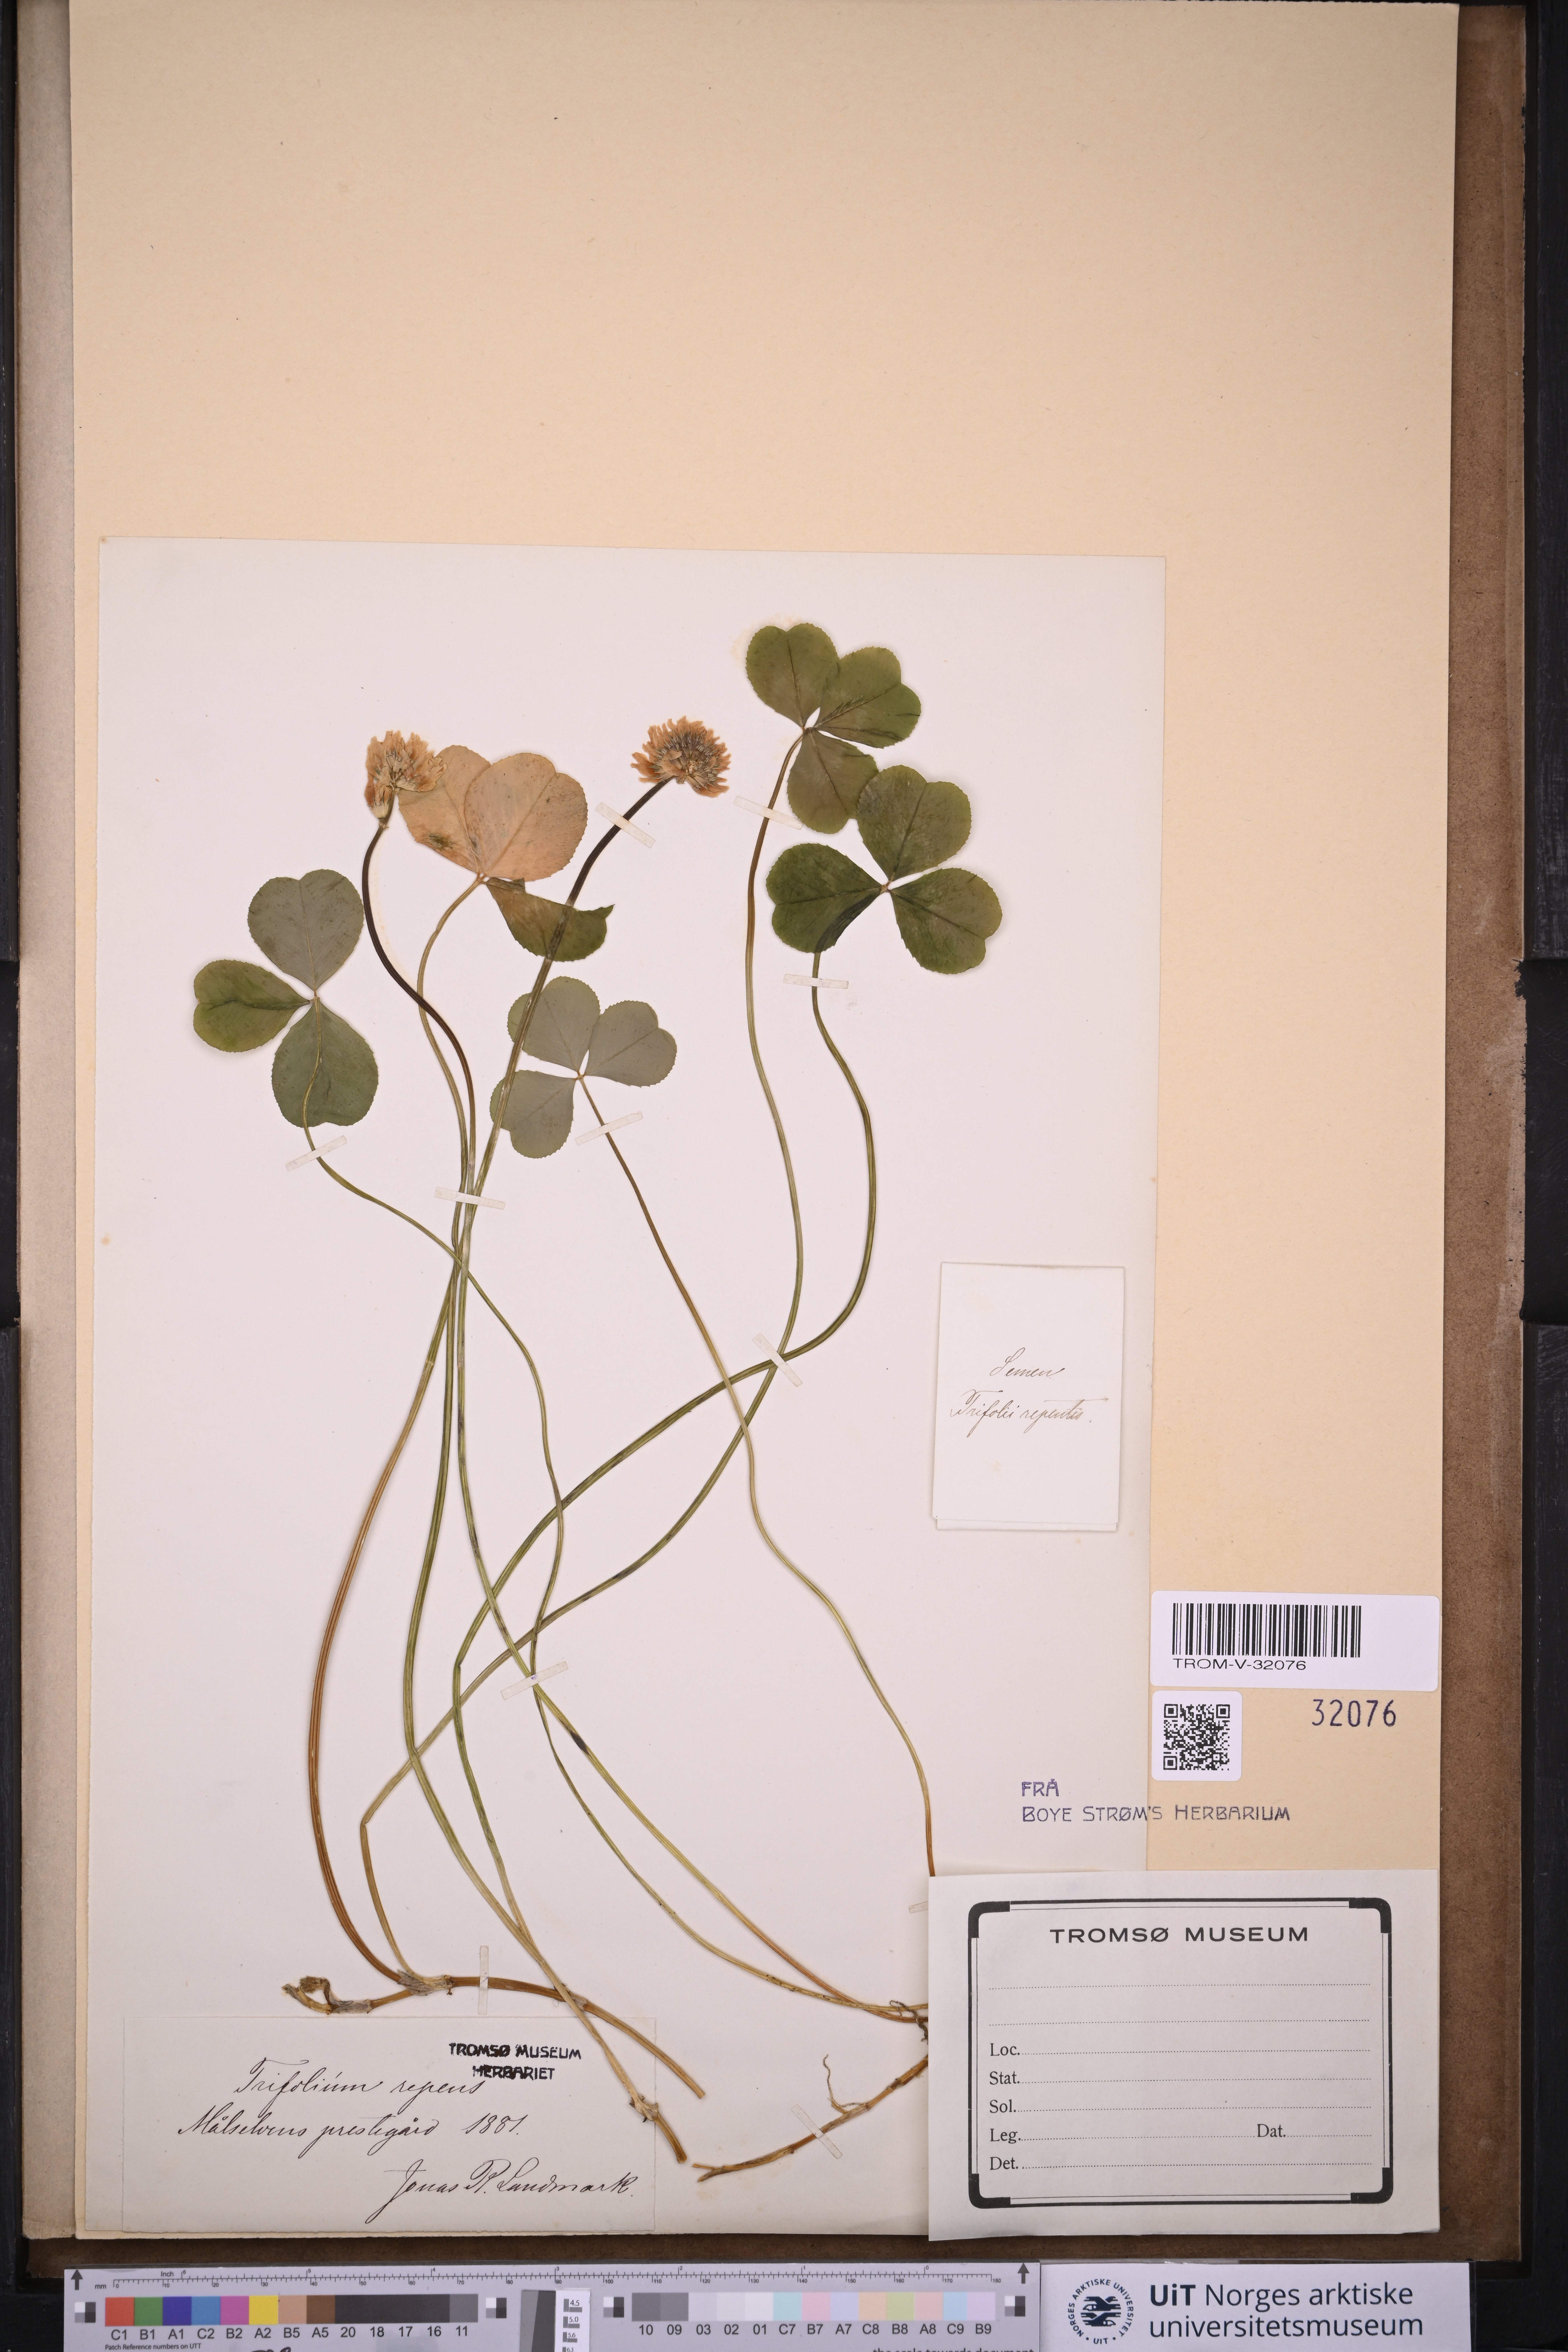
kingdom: Plantae
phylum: Tracheophyta
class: Magnoliopsida
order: Fabales
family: Fabaceae
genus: Trifolium
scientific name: Trifolium repens
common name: White clover
